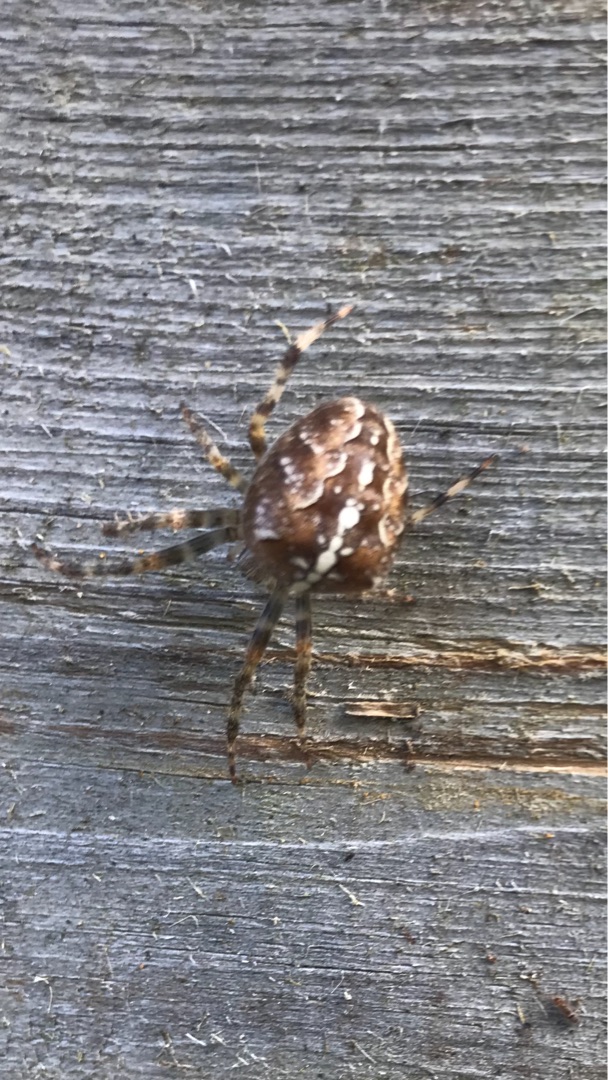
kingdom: Animalia
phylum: Arthropoda
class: Arachnida
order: Araneae
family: Araneidae
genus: Araneus
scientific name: Araneus diadematus
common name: Korsedderkop
